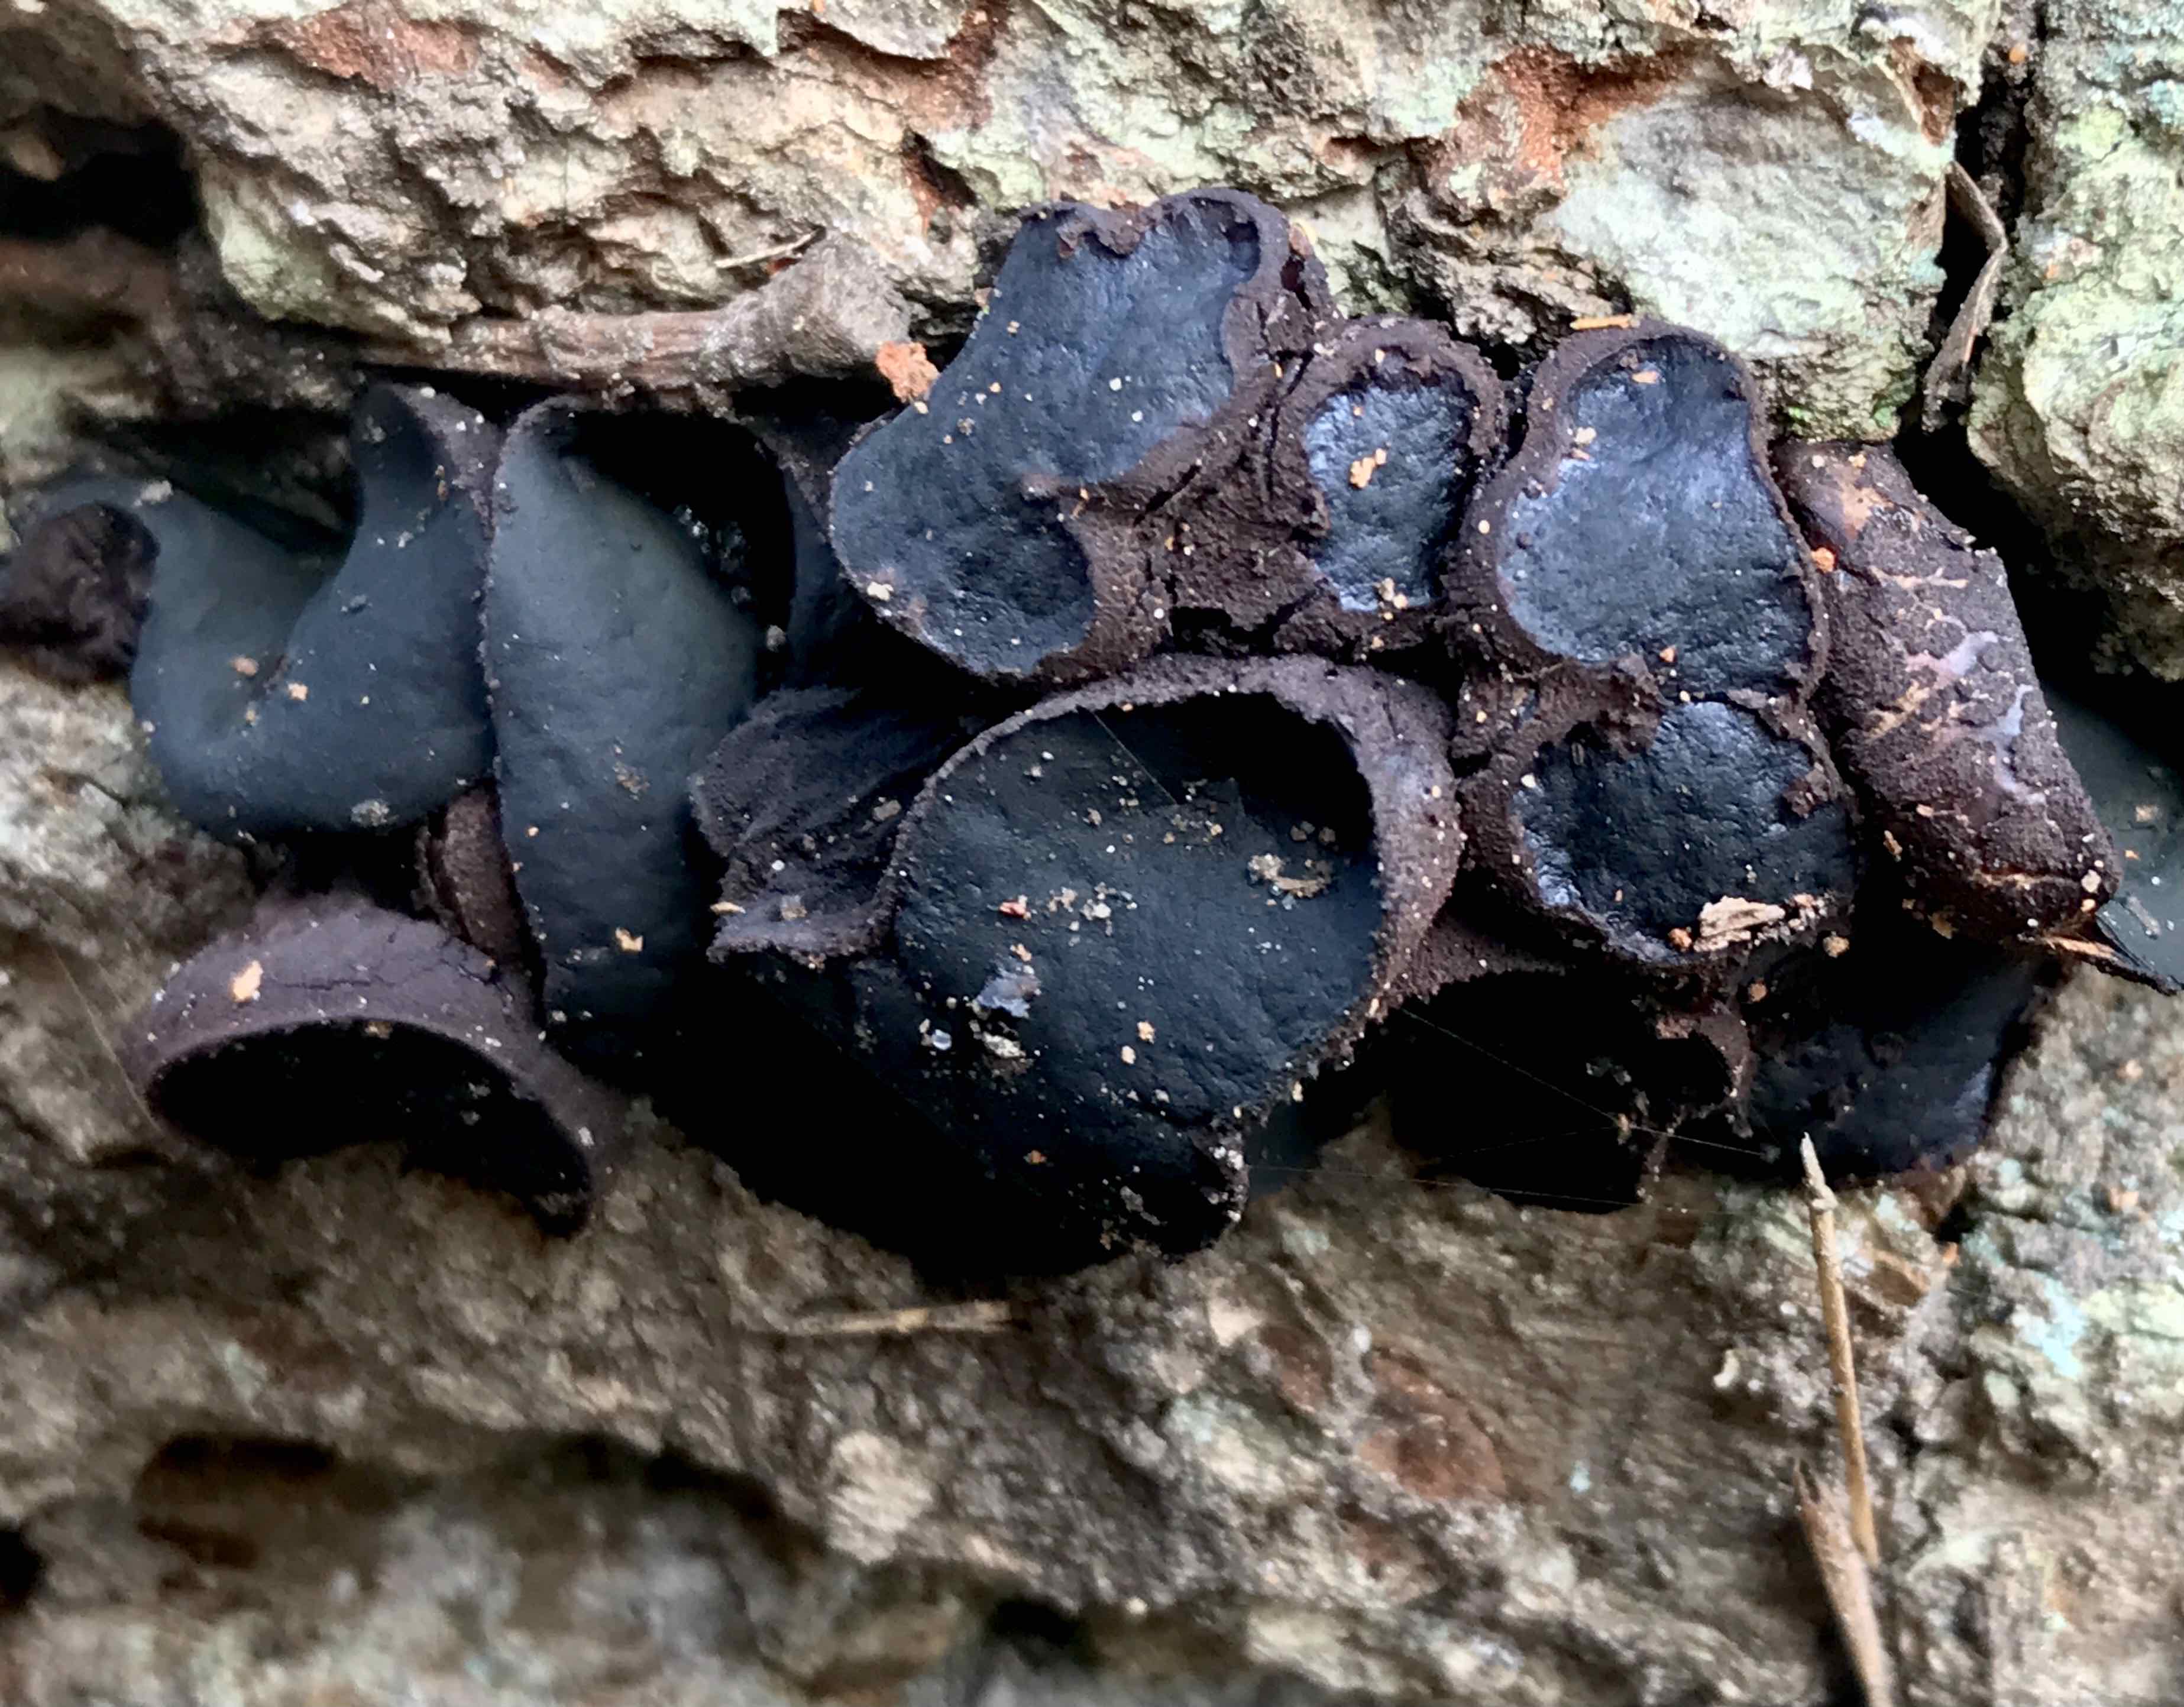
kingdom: Fungi
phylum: Ascomycota
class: Leotiomycetes
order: Phacidiales
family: Phacidiaceae
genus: Bulgaria
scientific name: Bulgaria inquinans
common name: afsmittende topsvamp
